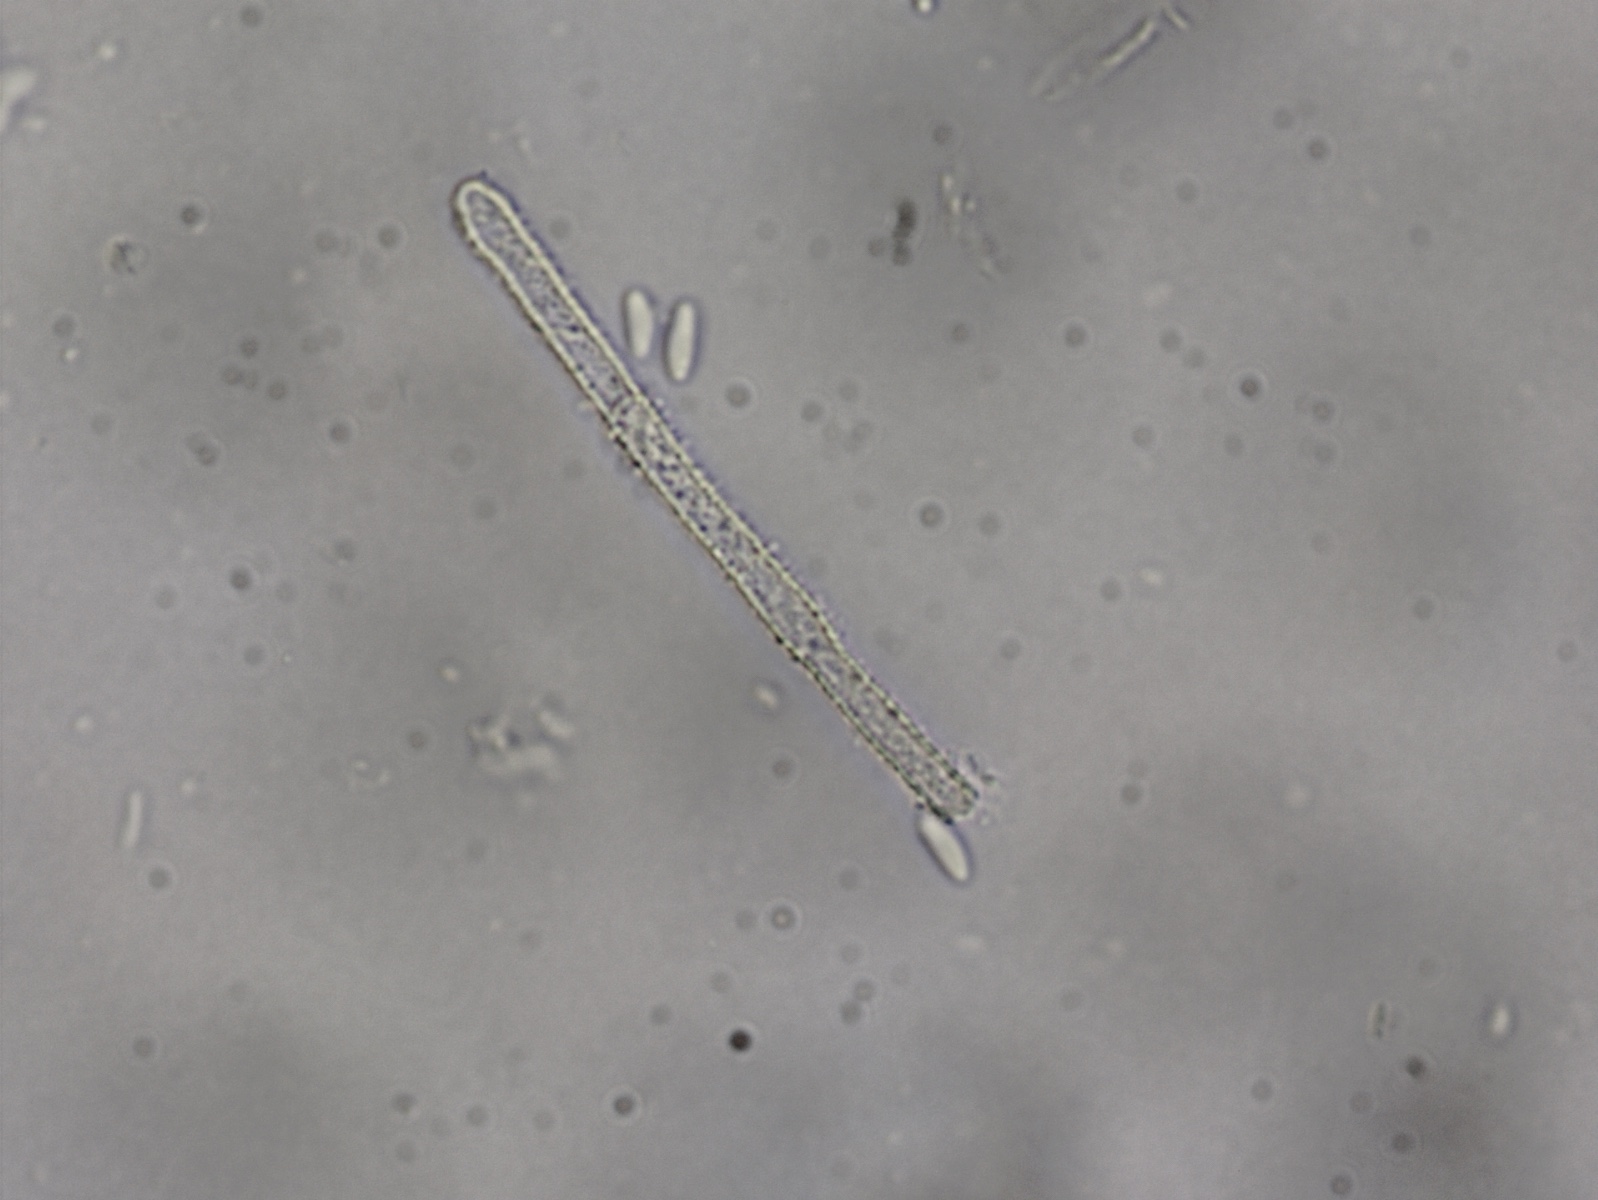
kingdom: Fungi
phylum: Ascomycota
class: Leotiomycetes
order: Helotiales
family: Lachnaceae
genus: Lachnum
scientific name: Lachnum impudicum
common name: vinter-frynseskive
